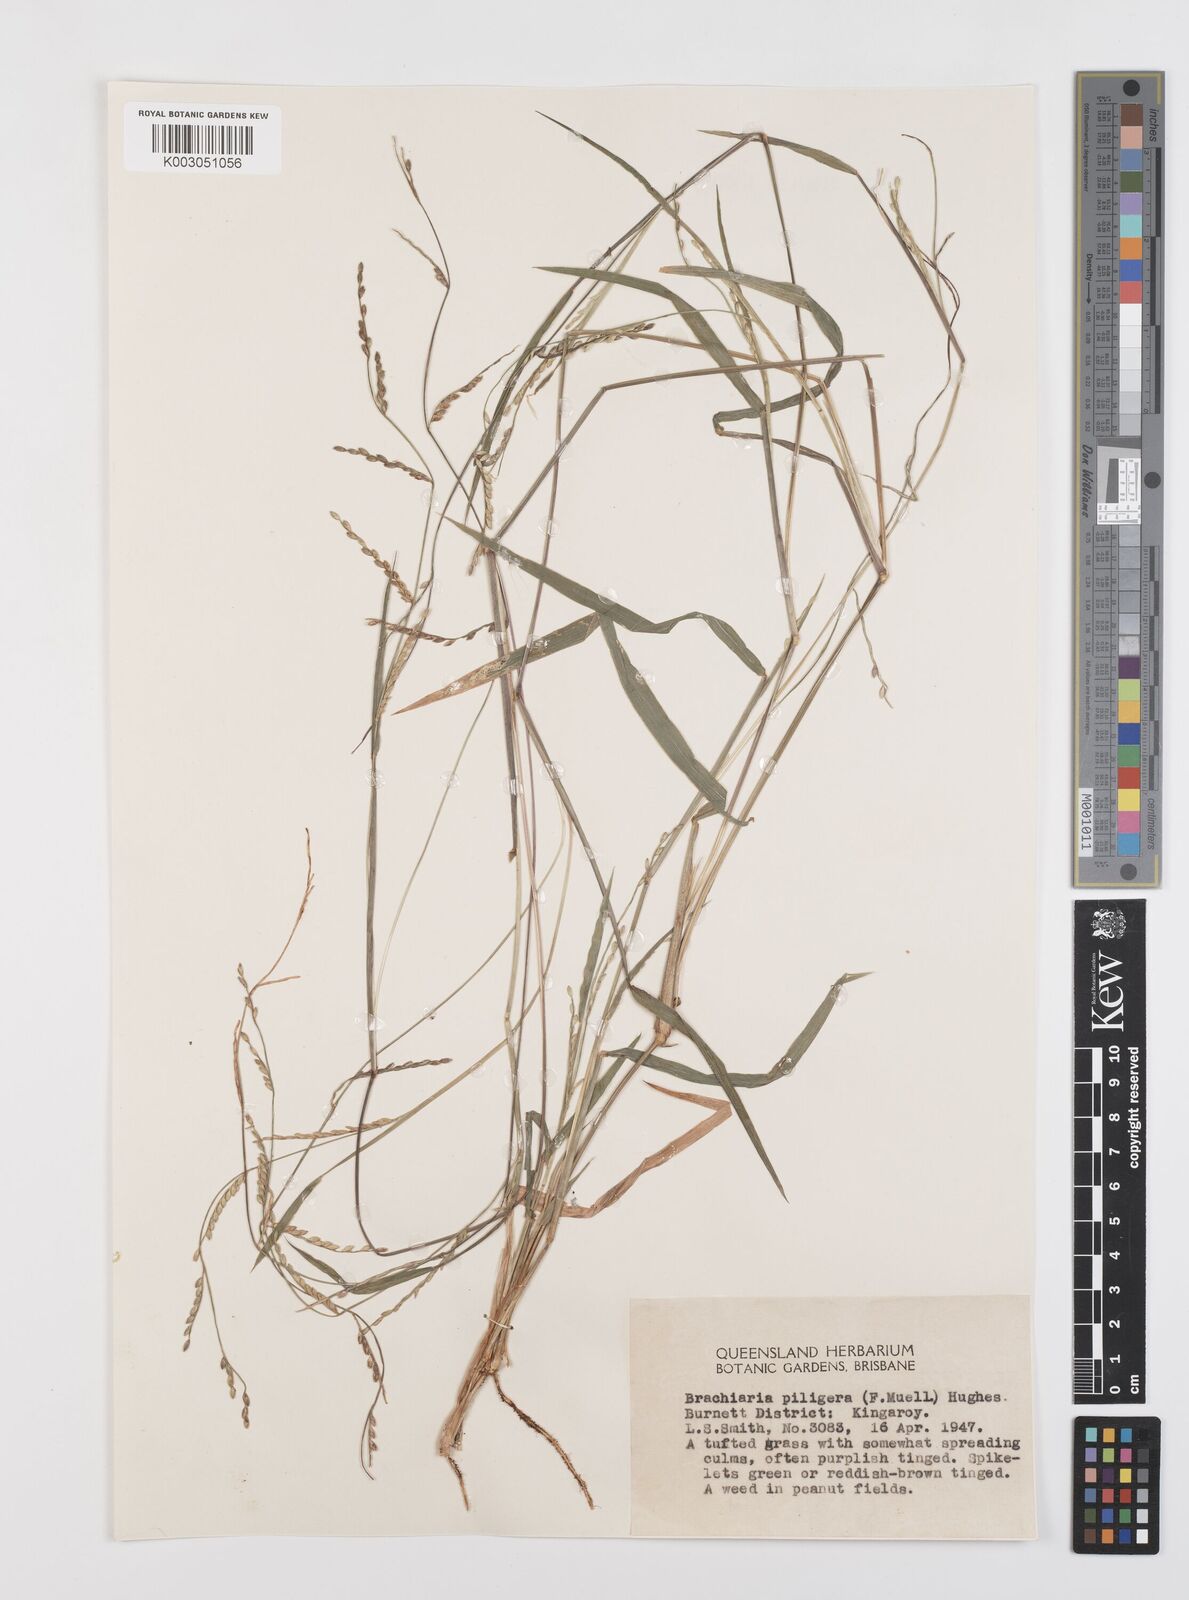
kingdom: Plantae
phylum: Tracheophyta
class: Liliopsida
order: Poales
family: Poaceae
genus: Urochloa
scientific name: Urochloa piligera
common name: Wattle signalgrass
